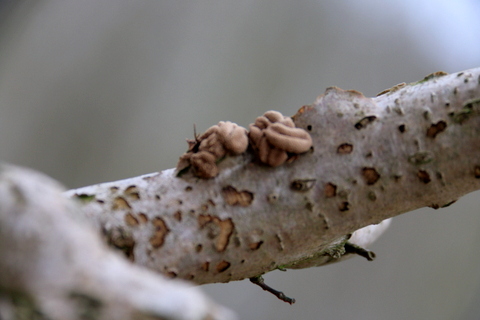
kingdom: Fungi
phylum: Ascomycota
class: Leotiomycetes
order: Helotiales
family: Cenangiaceae
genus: Encoelia
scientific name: Encoelia furfuracea
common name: hassel-læderskive
